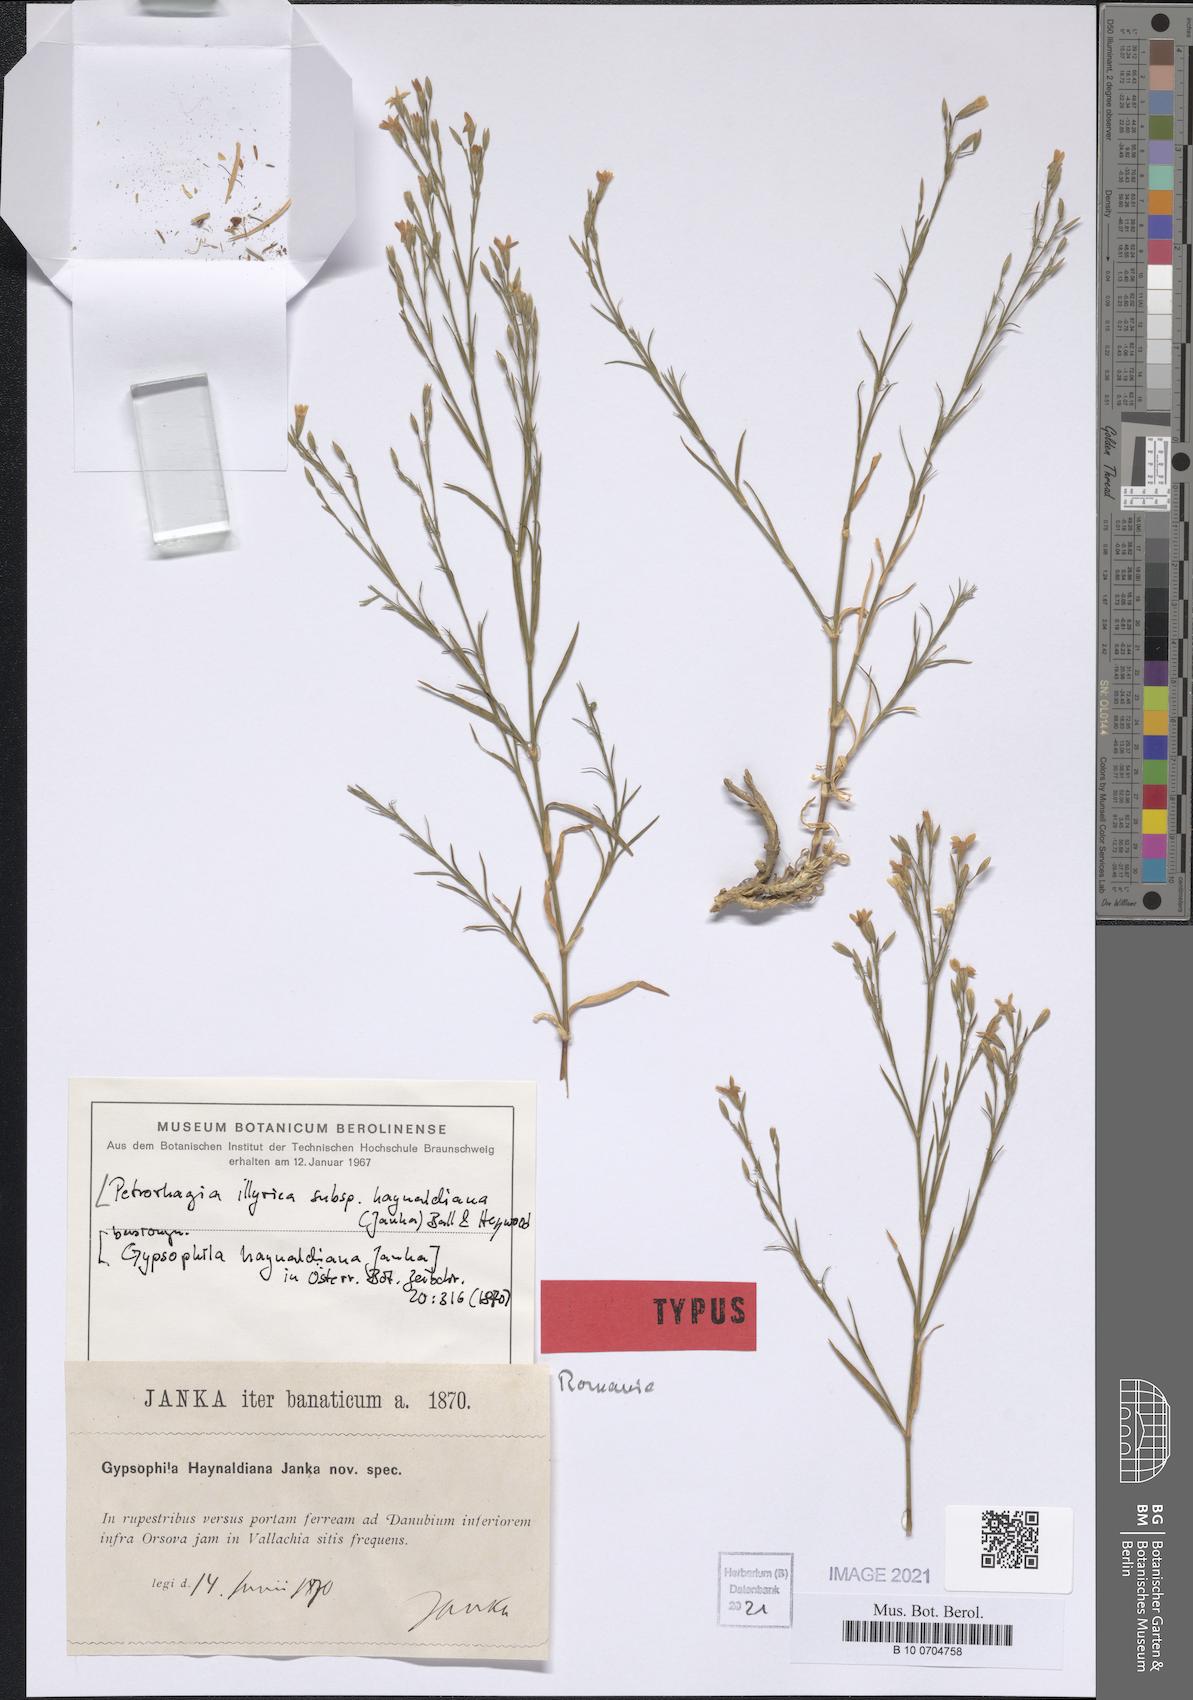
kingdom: Plantae
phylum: Tracheophyta
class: Magnoliopsida
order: Caryophyllales
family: Caryophyllaceae
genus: Dianthus
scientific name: Dianthus illyricus
